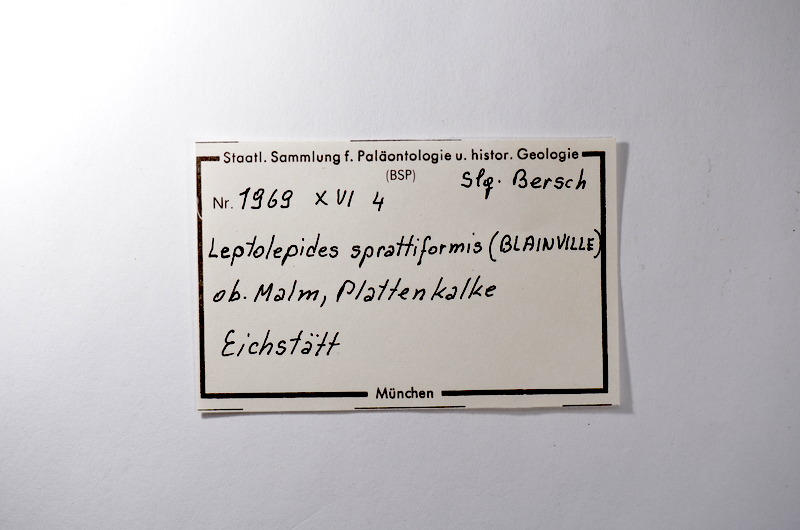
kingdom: Animalia
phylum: Chordata
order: Salmoniformes
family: Orthogonikleithridae
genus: Leptolepides
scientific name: Leptolepides sprattiformis
